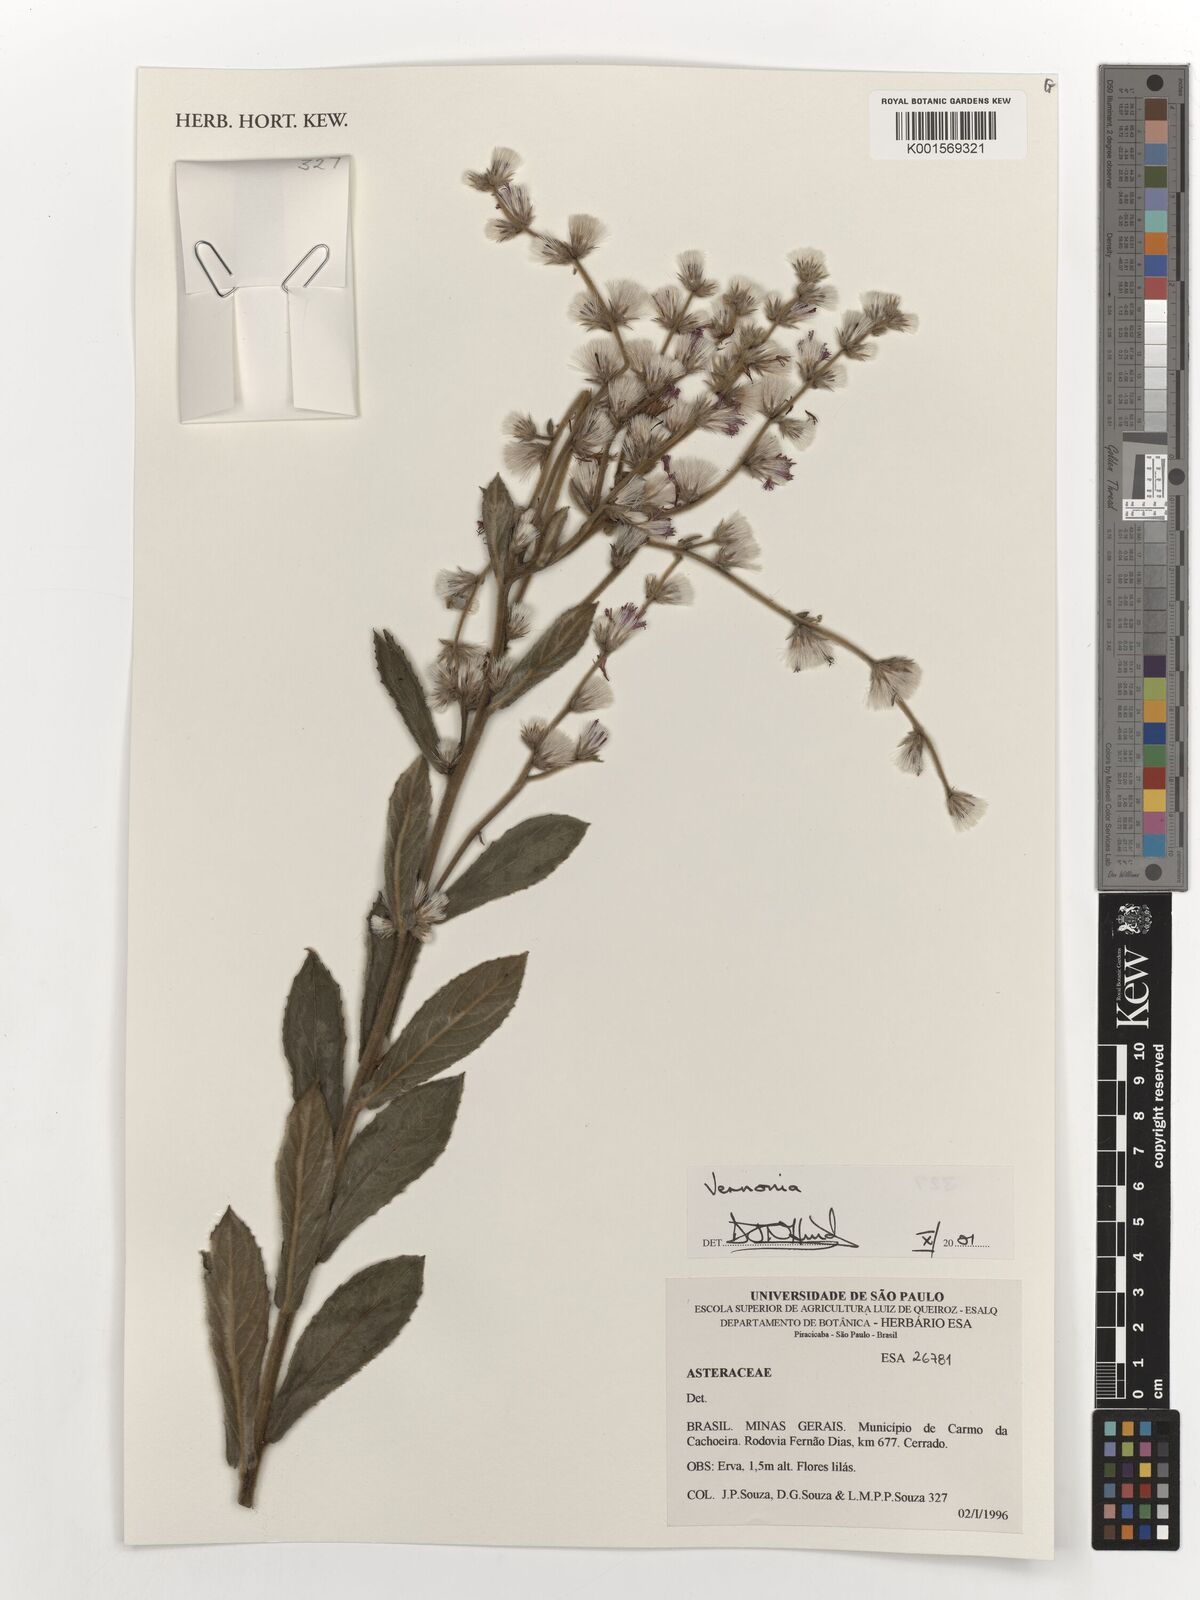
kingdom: Plantae
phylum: Tracheophyta
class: Magnoliopsida
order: Asterales
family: Asteraceae
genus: Vernonia
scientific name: Vernonia
